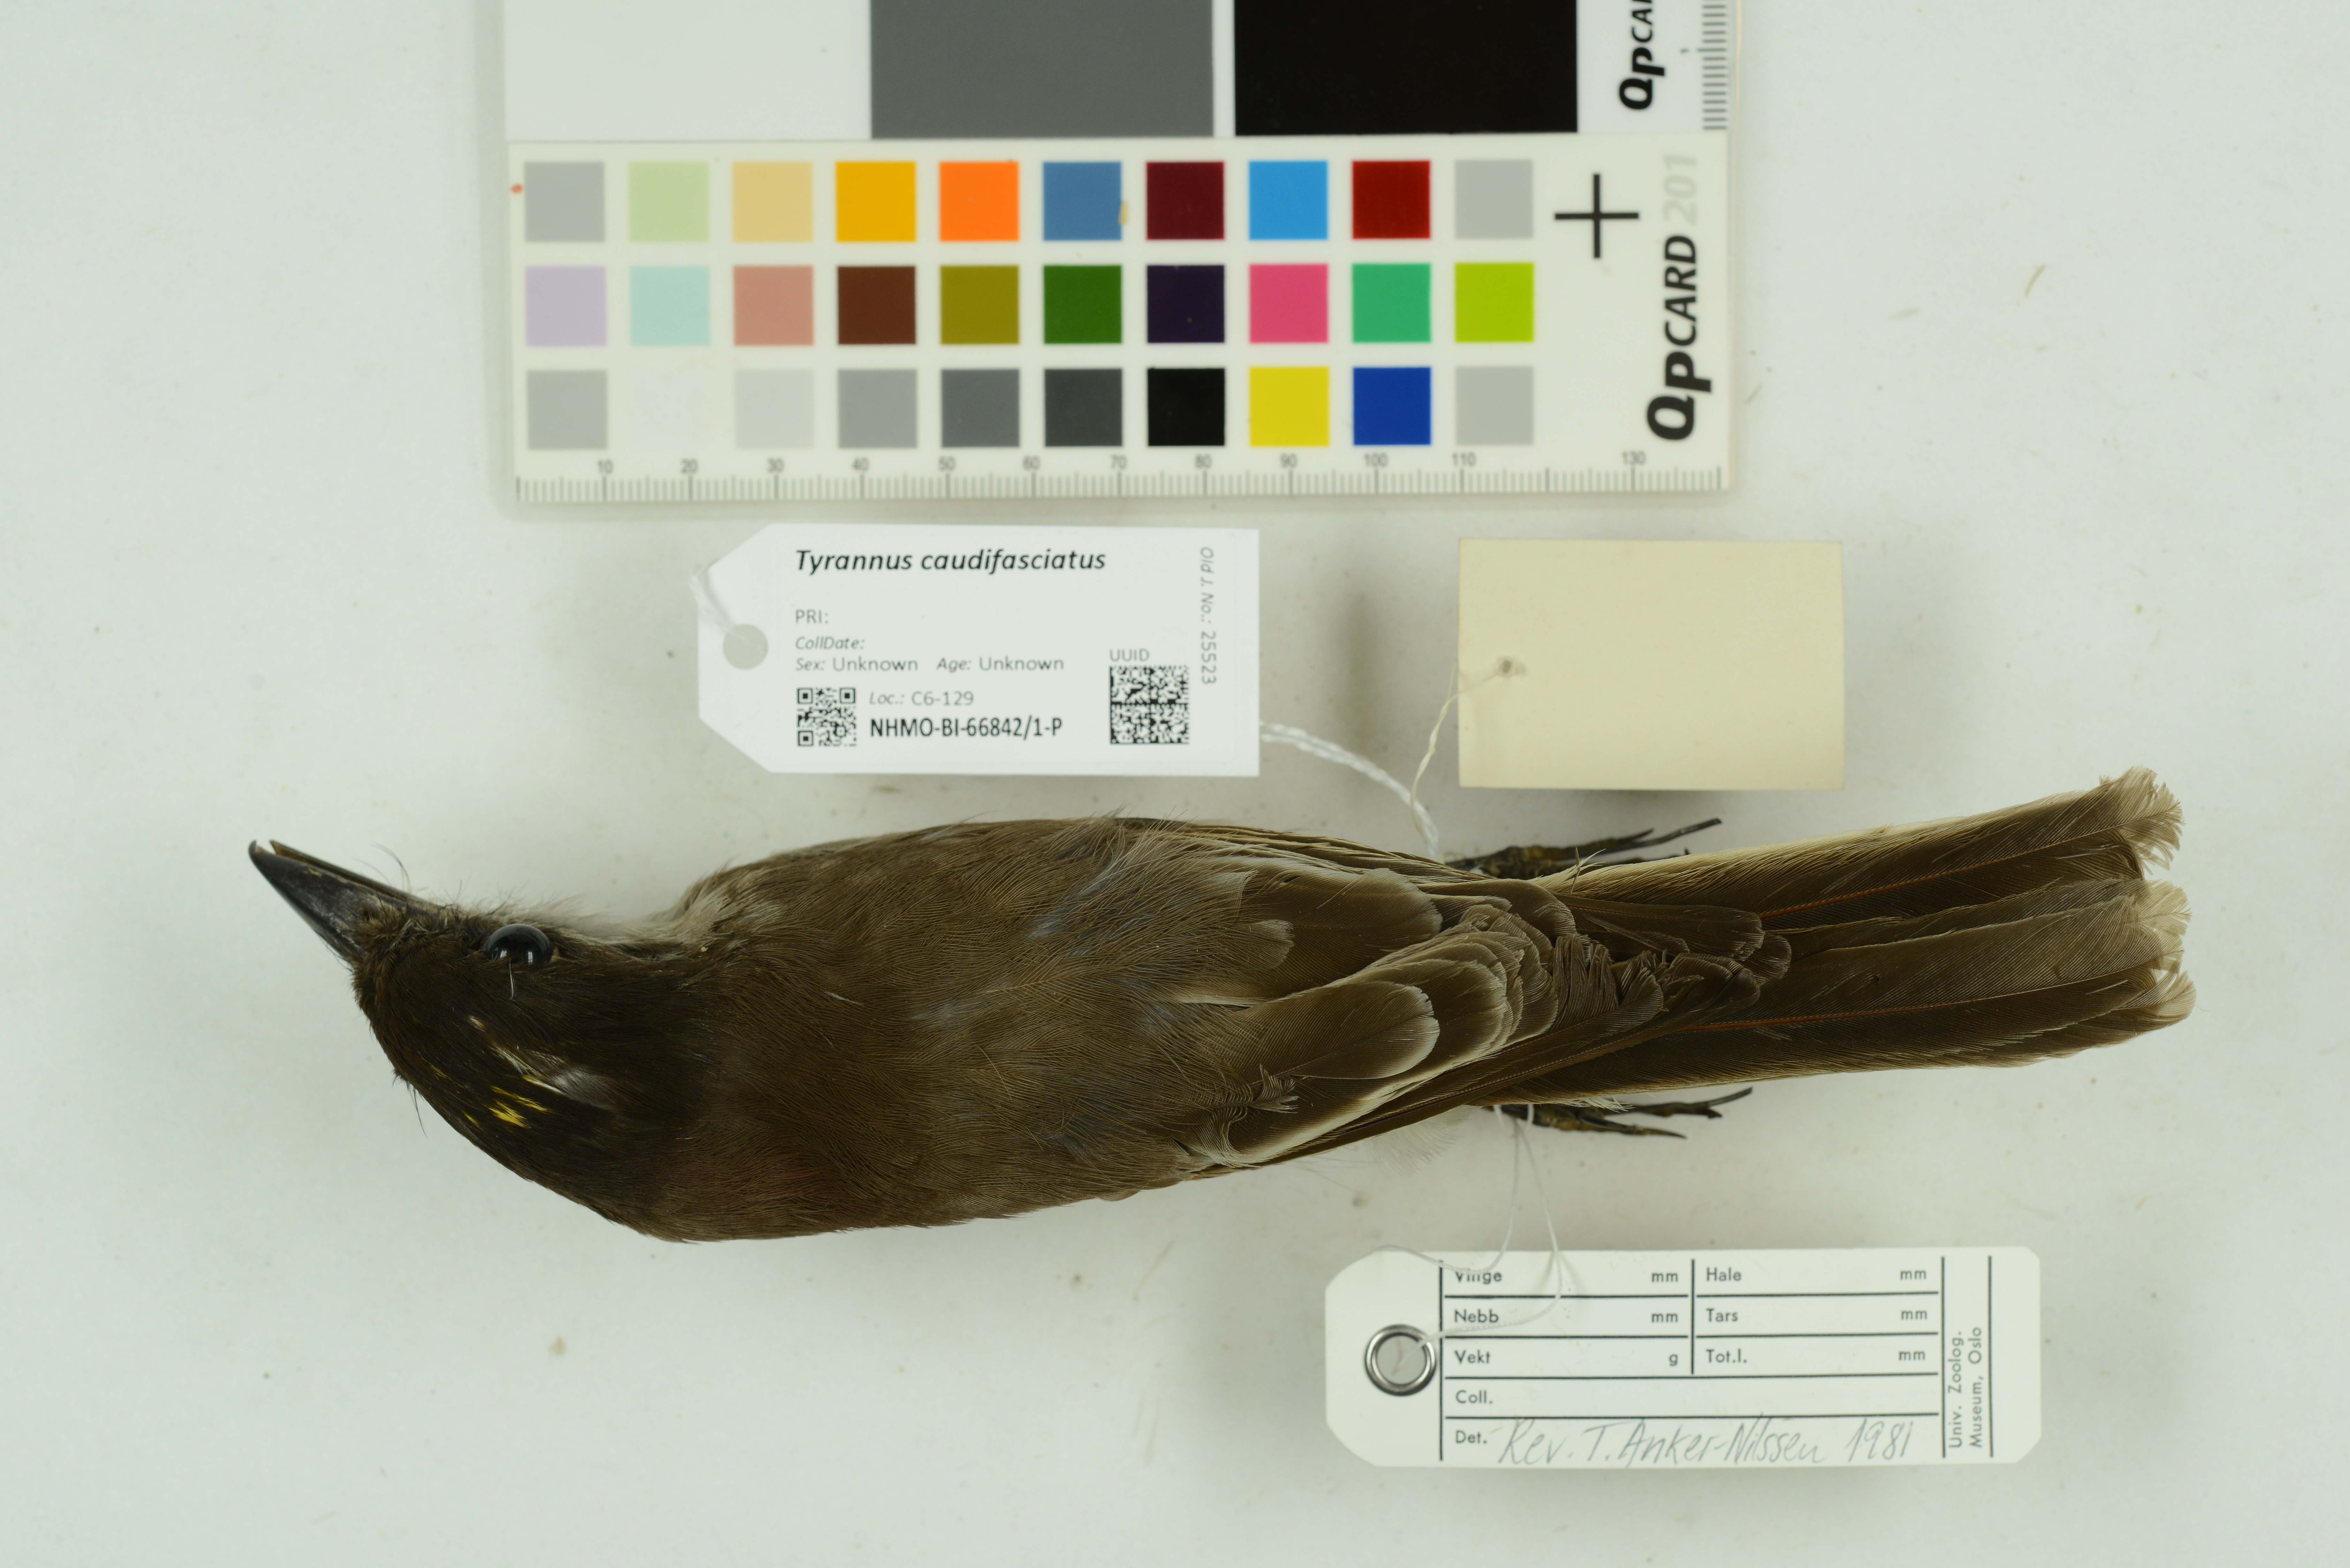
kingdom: Animalia
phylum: Chordata
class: Aves
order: Passeriformes
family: Tyrannidae
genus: Tyrannus
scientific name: Tyrannus caudifasciatus
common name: Loggerhead kingbird
